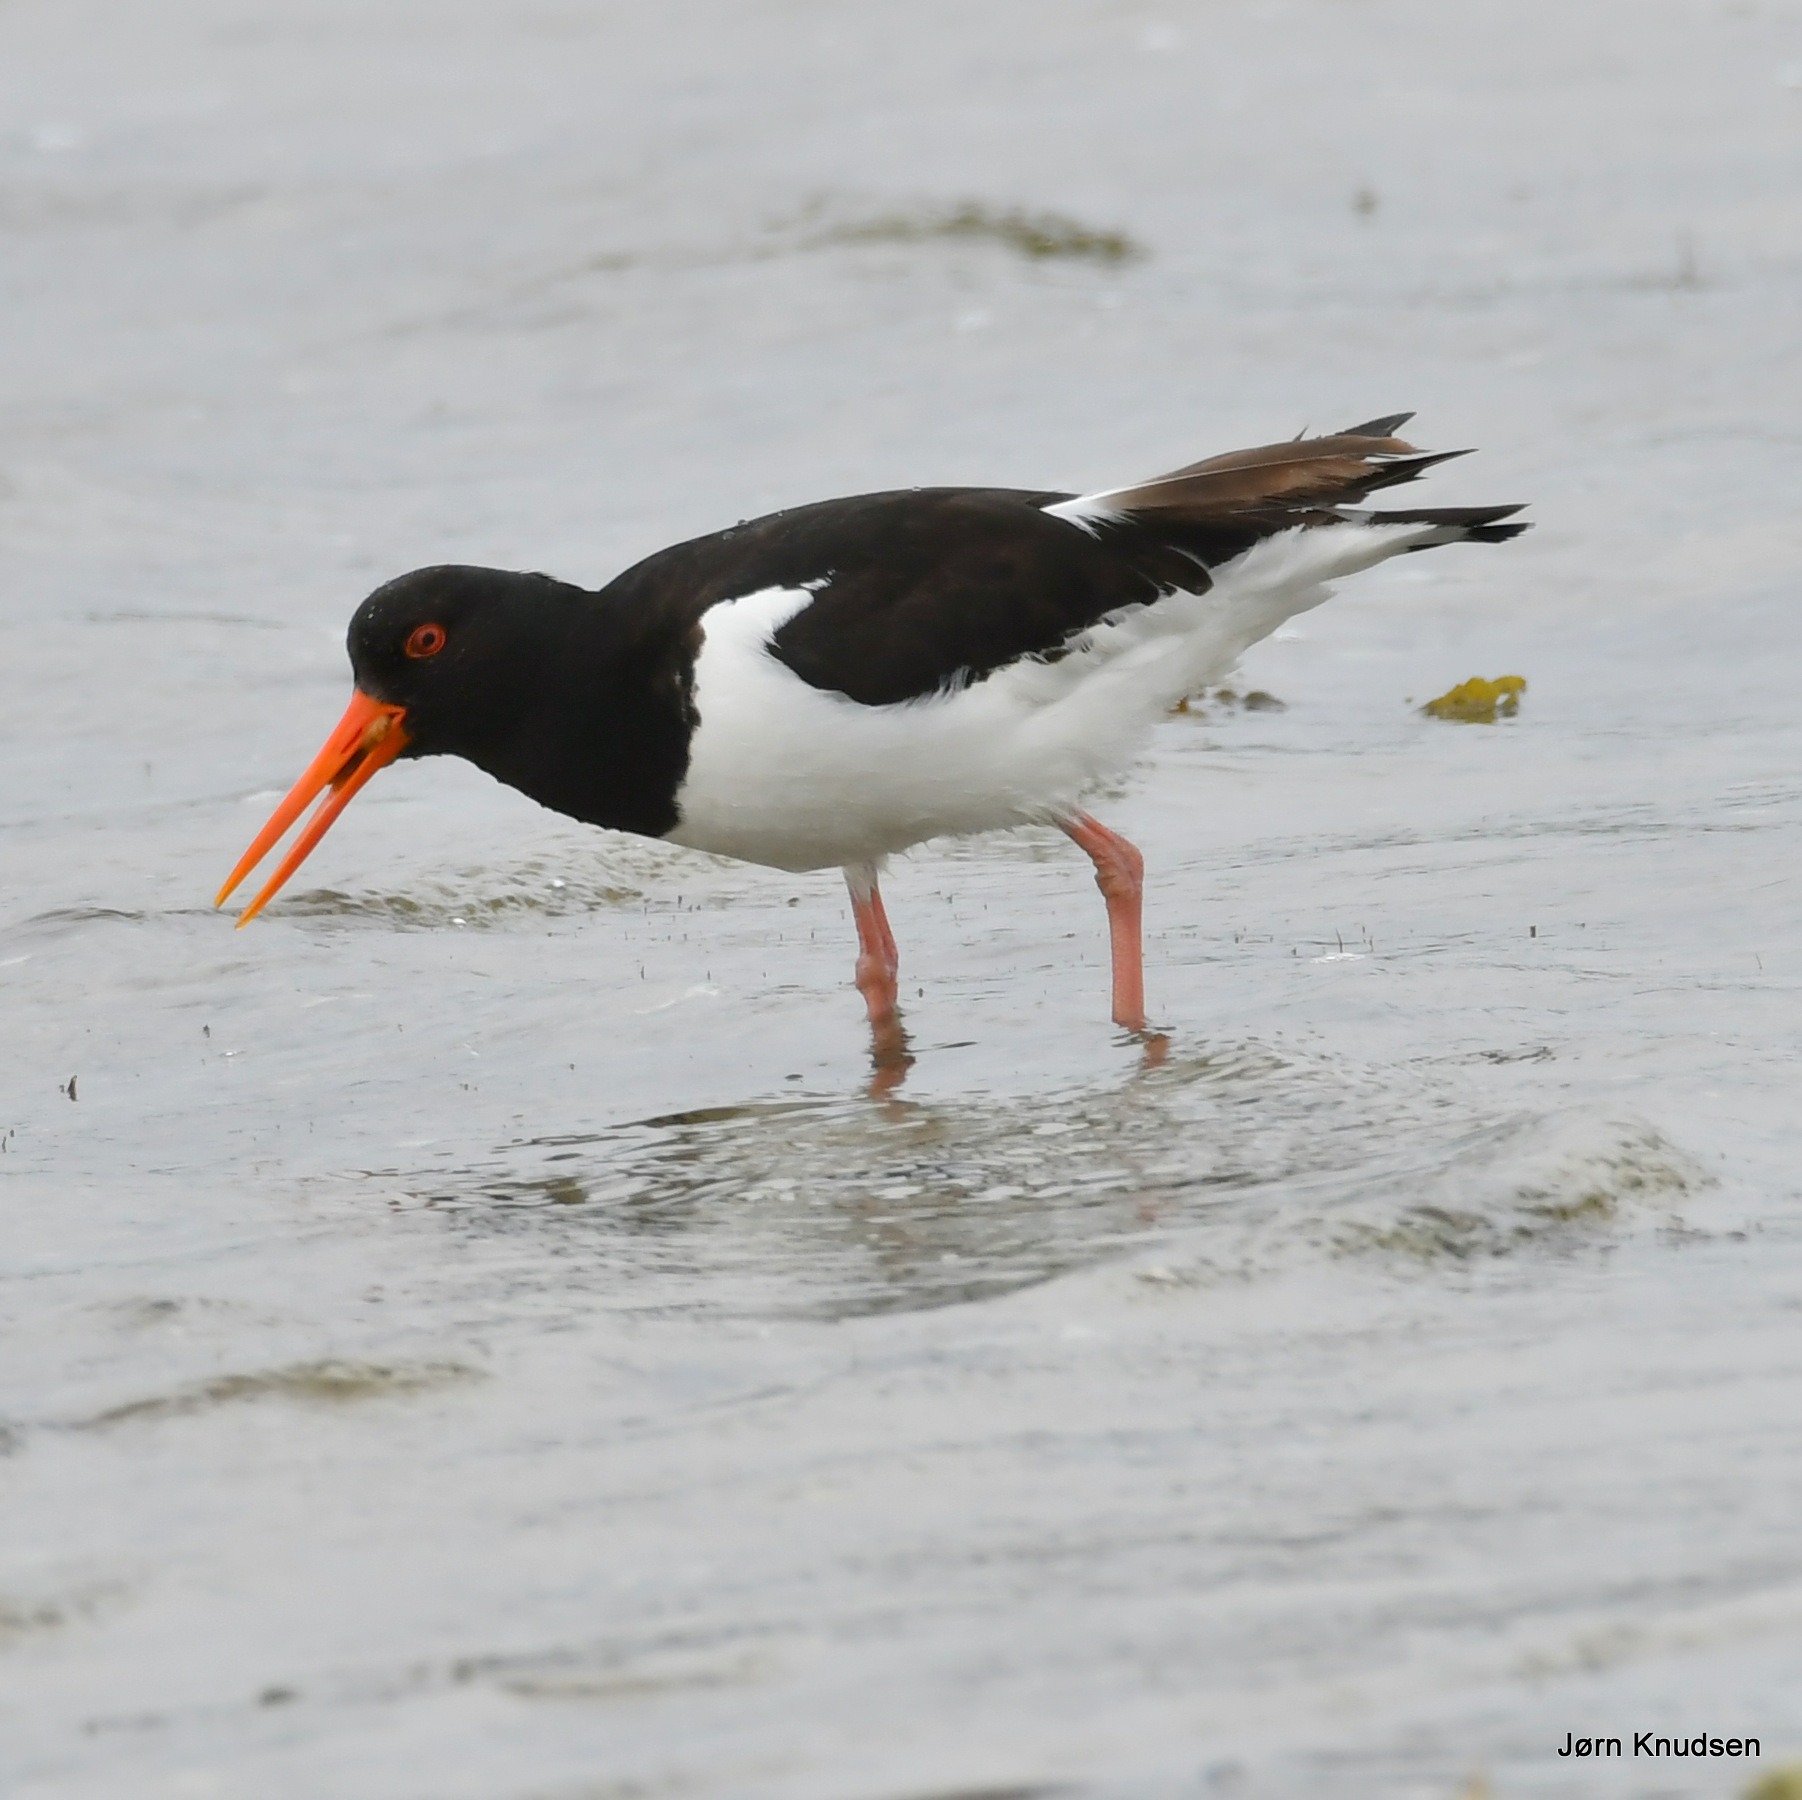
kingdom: Animalia
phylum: Chordata
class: Aves
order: Charadriiformes
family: Haematopodidae
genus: Haematopus
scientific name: Haematopus ostralegus
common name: Strandskade
